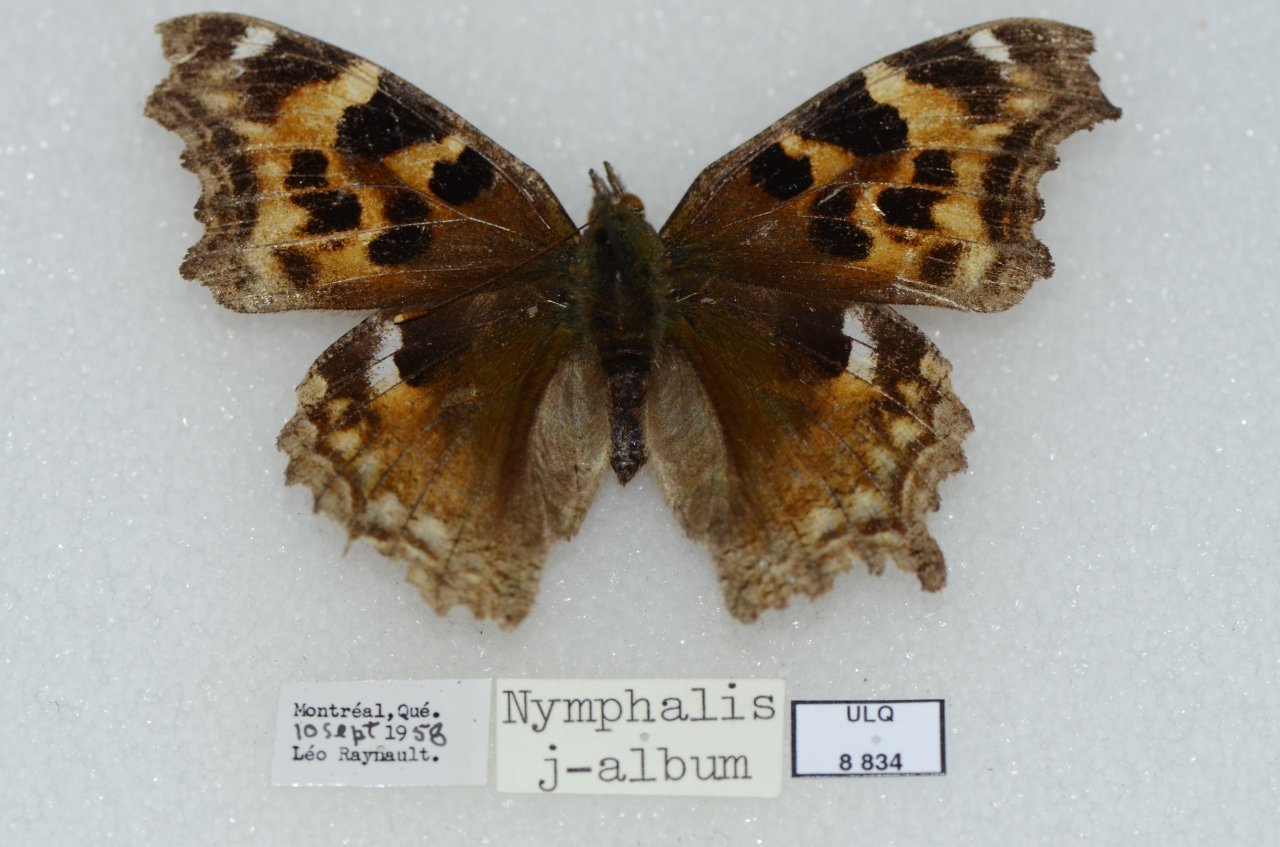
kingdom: Animalia
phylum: Arthropoda
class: Insecta
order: Lepidoptera
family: Nymphalidae
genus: Polygonia
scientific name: Polygonia vaualbum
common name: Compton Tortoiseshell
